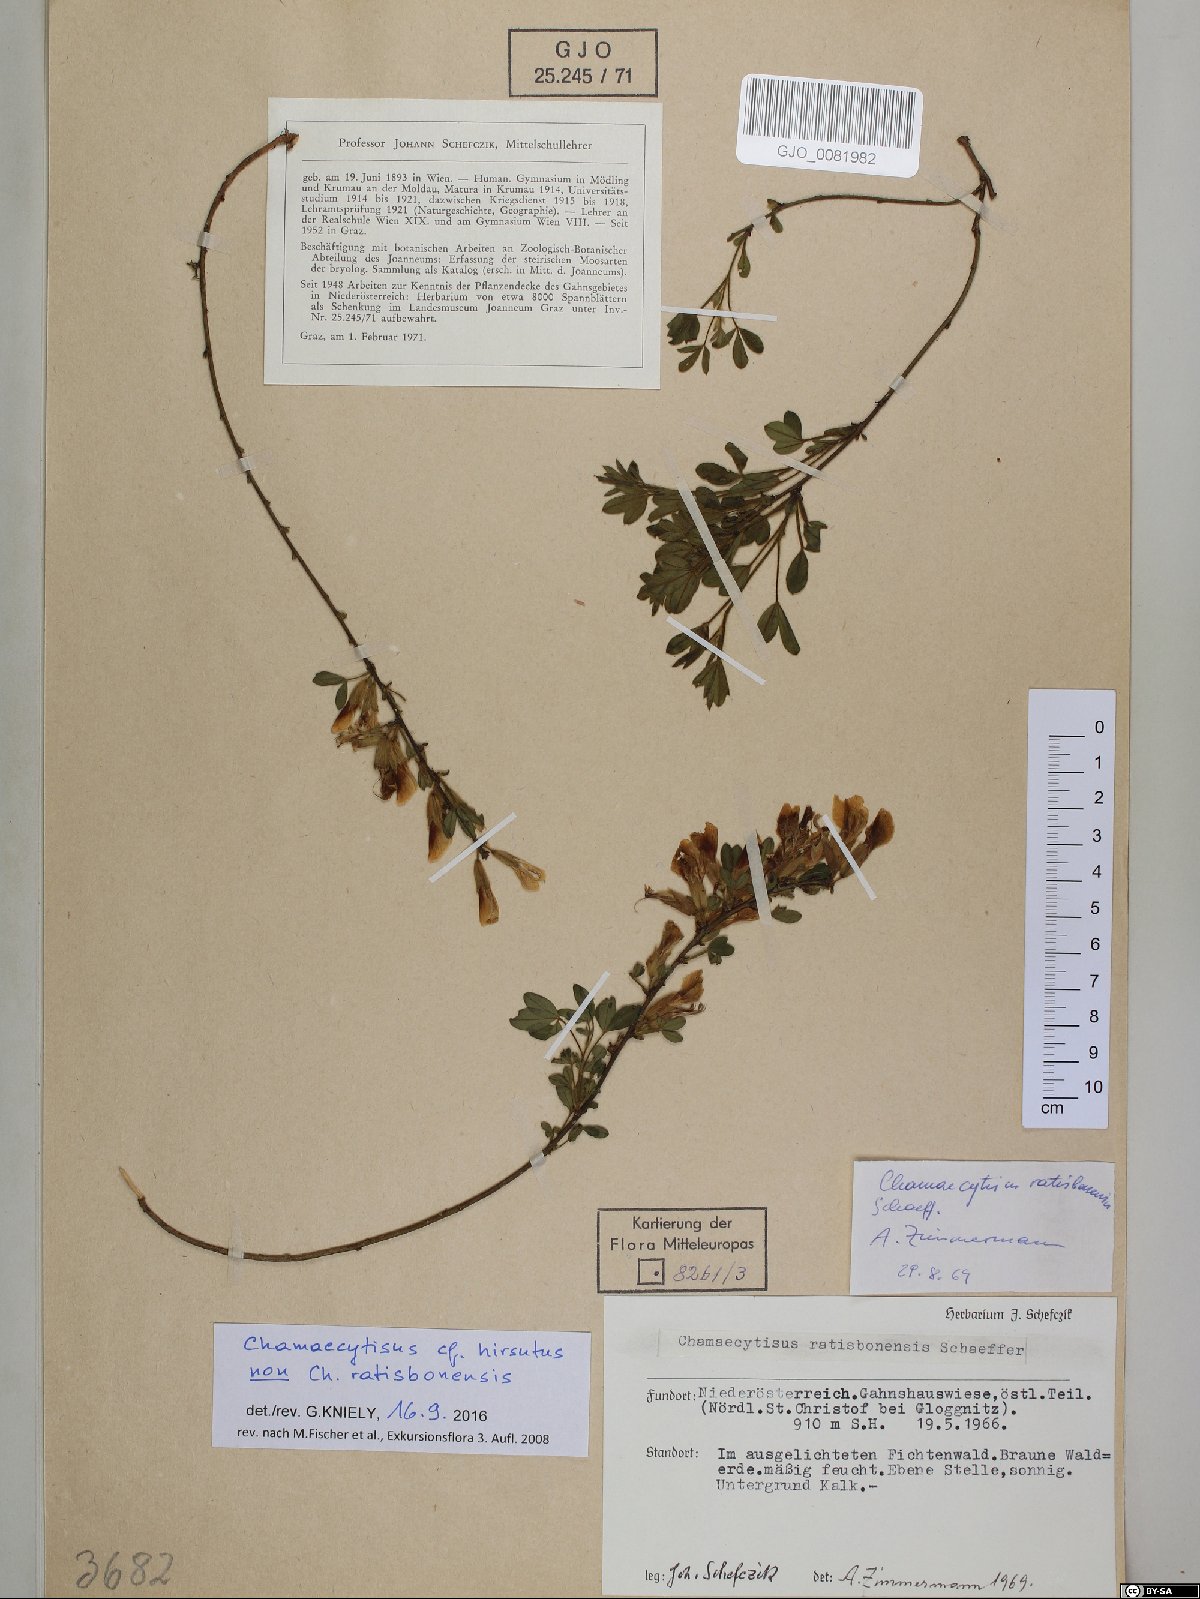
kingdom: Plantae
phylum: Tracheophyta
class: Magnoliopsida
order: Fabales
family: Fabaceae
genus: Chamaecytisus
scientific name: Chamaecytisus hirsutus
